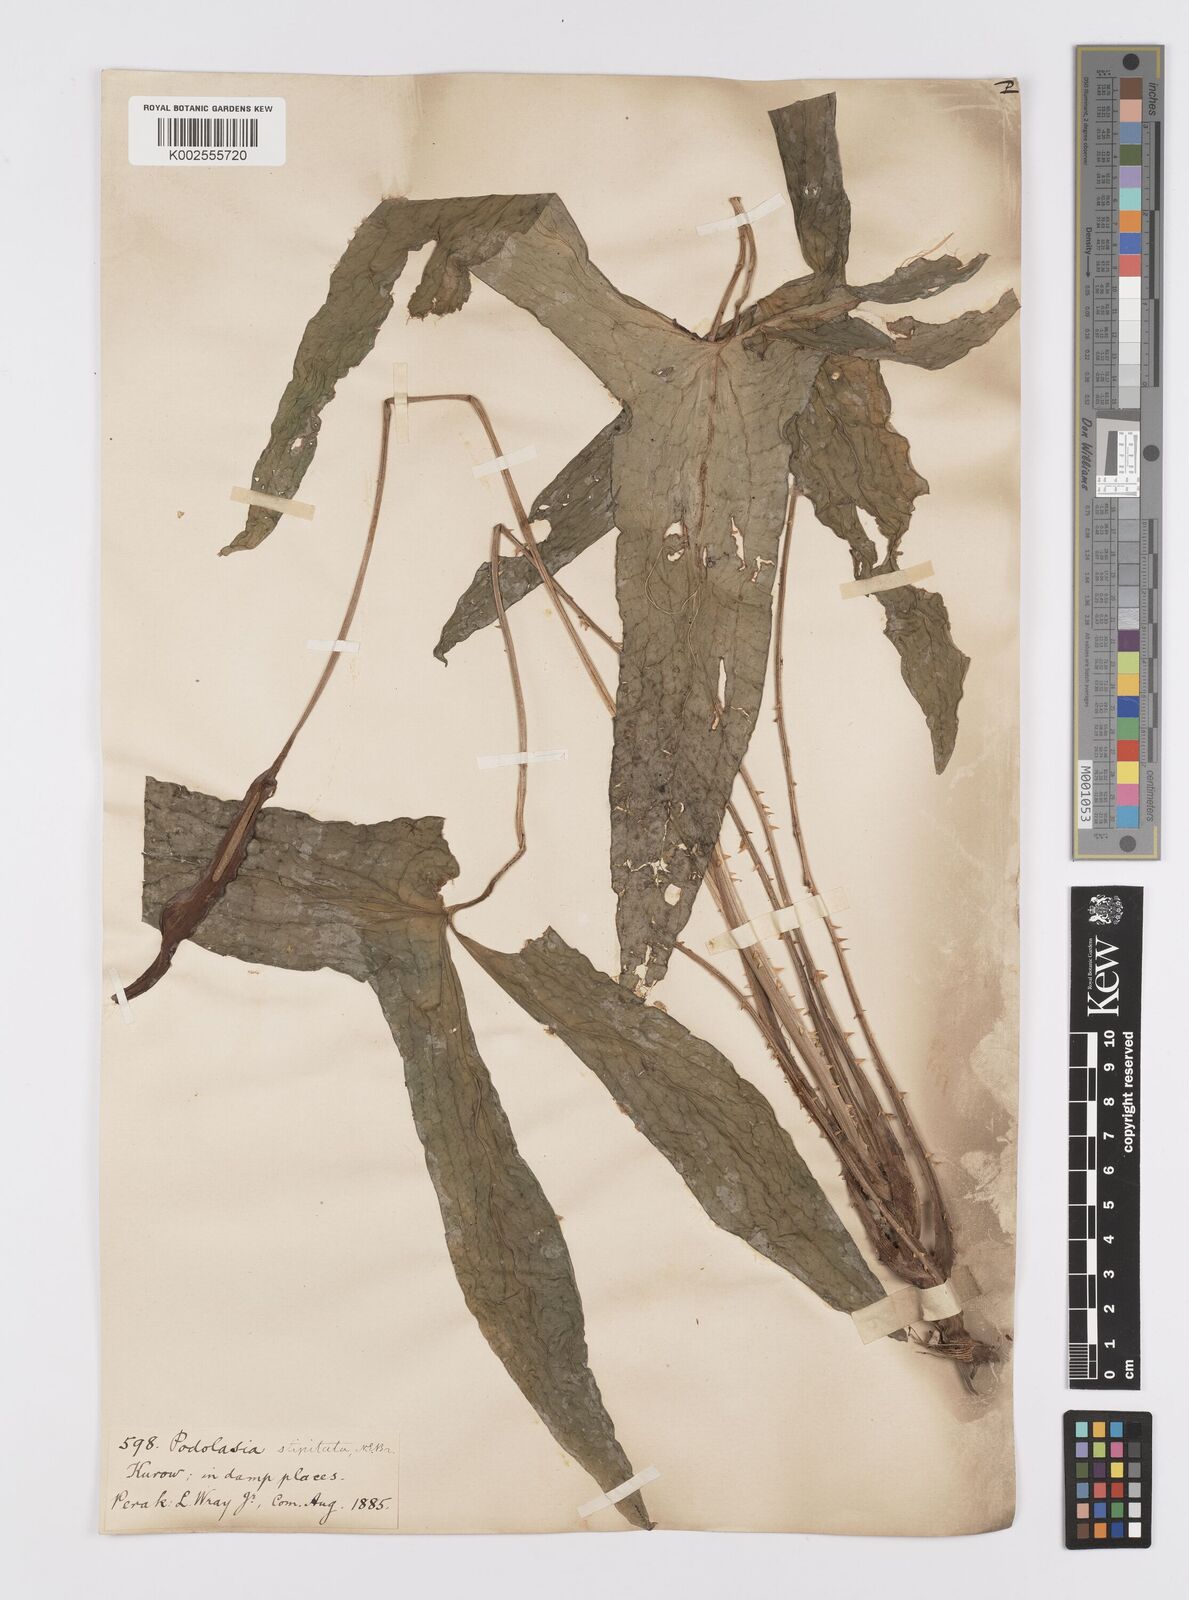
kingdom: Plantae
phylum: Tracheophyta
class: Liliopsida
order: Alismatales
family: Araceae
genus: Podolasia
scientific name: Podolasia stipitata
